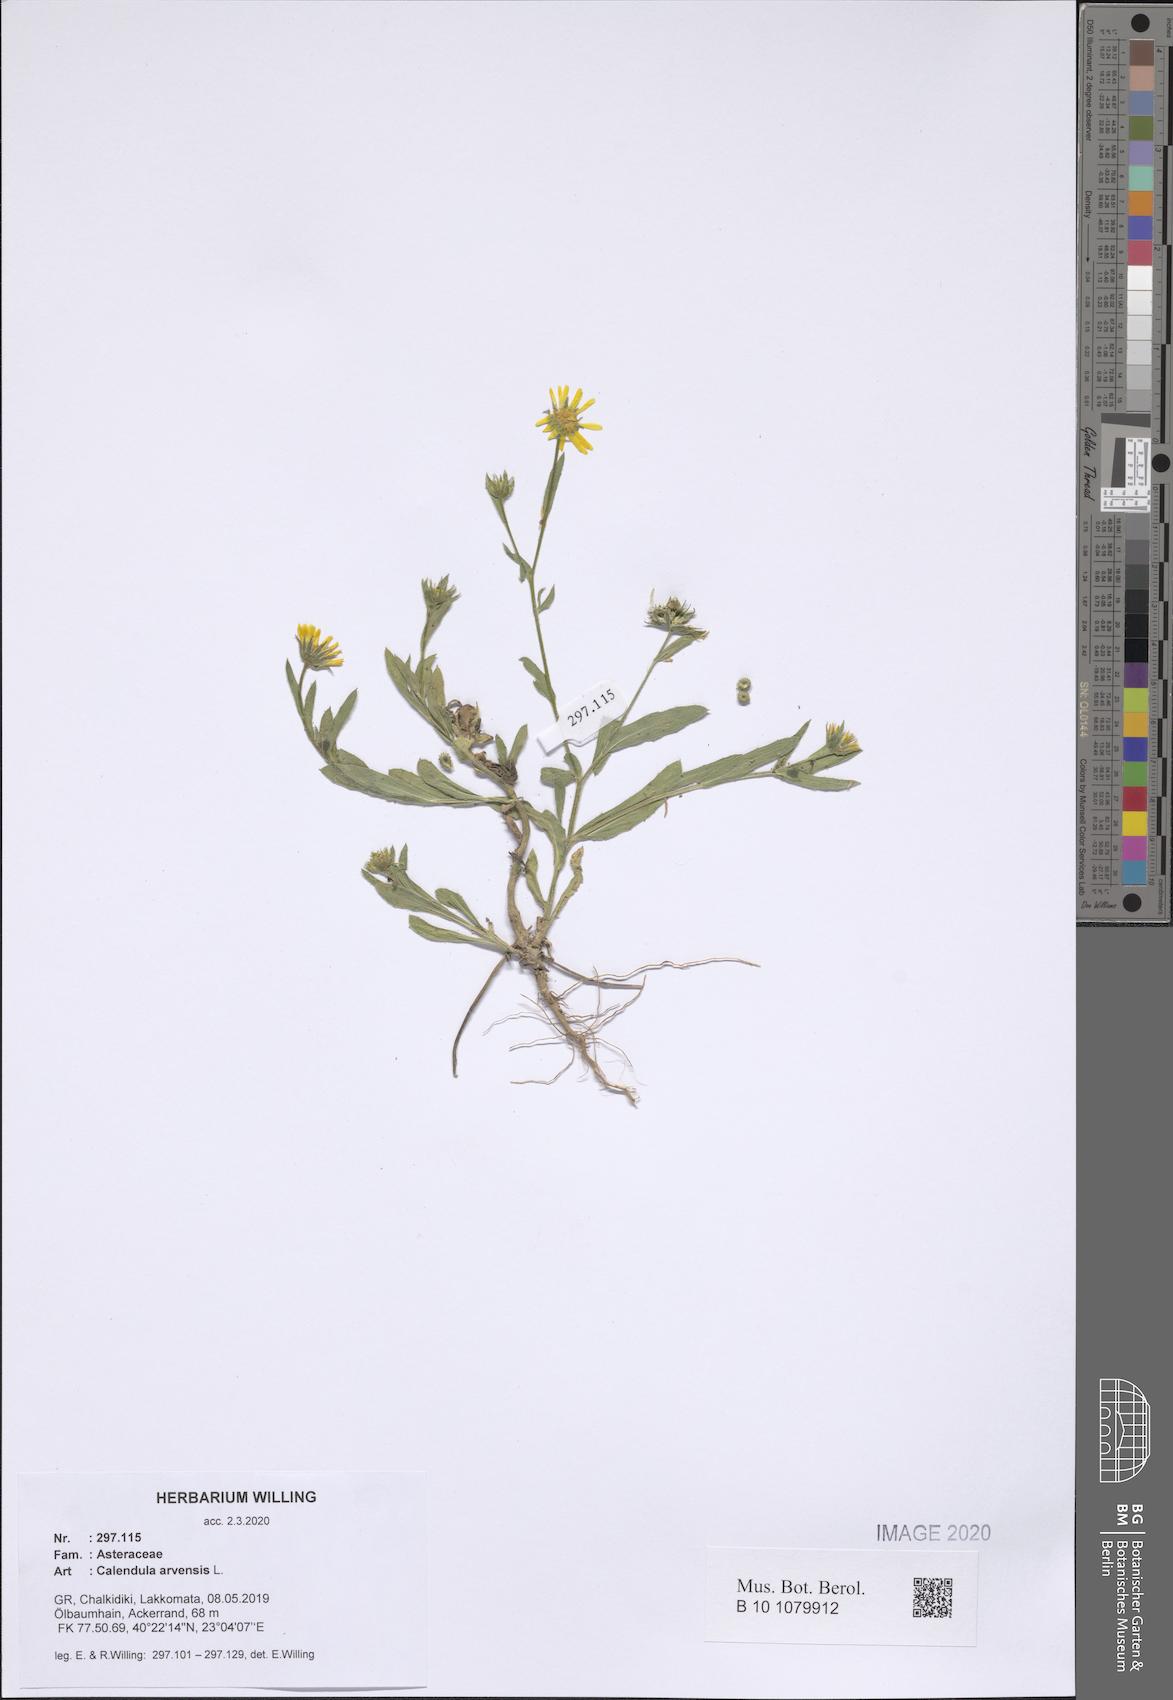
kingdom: Plantae
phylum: Tracheophyta
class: Magnoliopsida
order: Asterales
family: Asteraceae
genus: Calendula
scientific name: Calendula arvensis
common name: Field marigold
